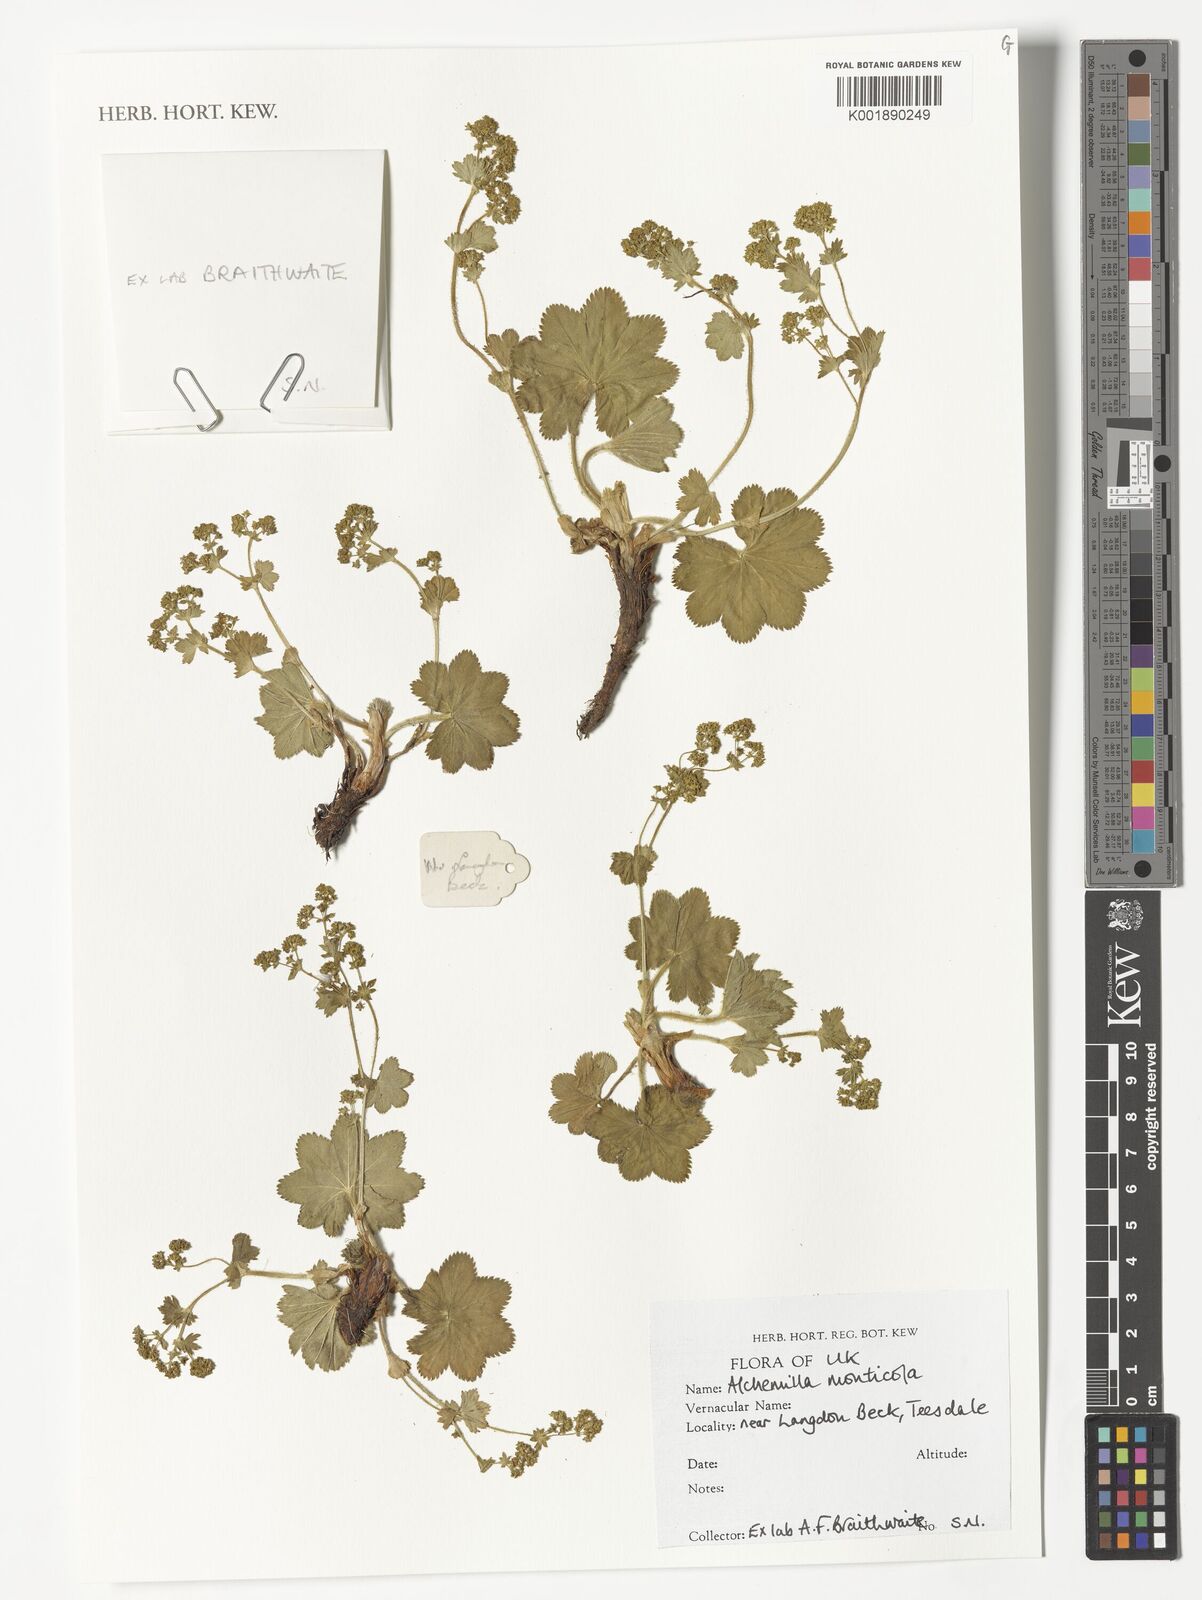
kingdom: Plantae
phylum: Tracheophyta
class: Magnoliopsida
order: Rosales
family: Rosaceae
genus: Alchemilla
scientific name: Alchemilla monticola
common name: Hairy lady's mantle
